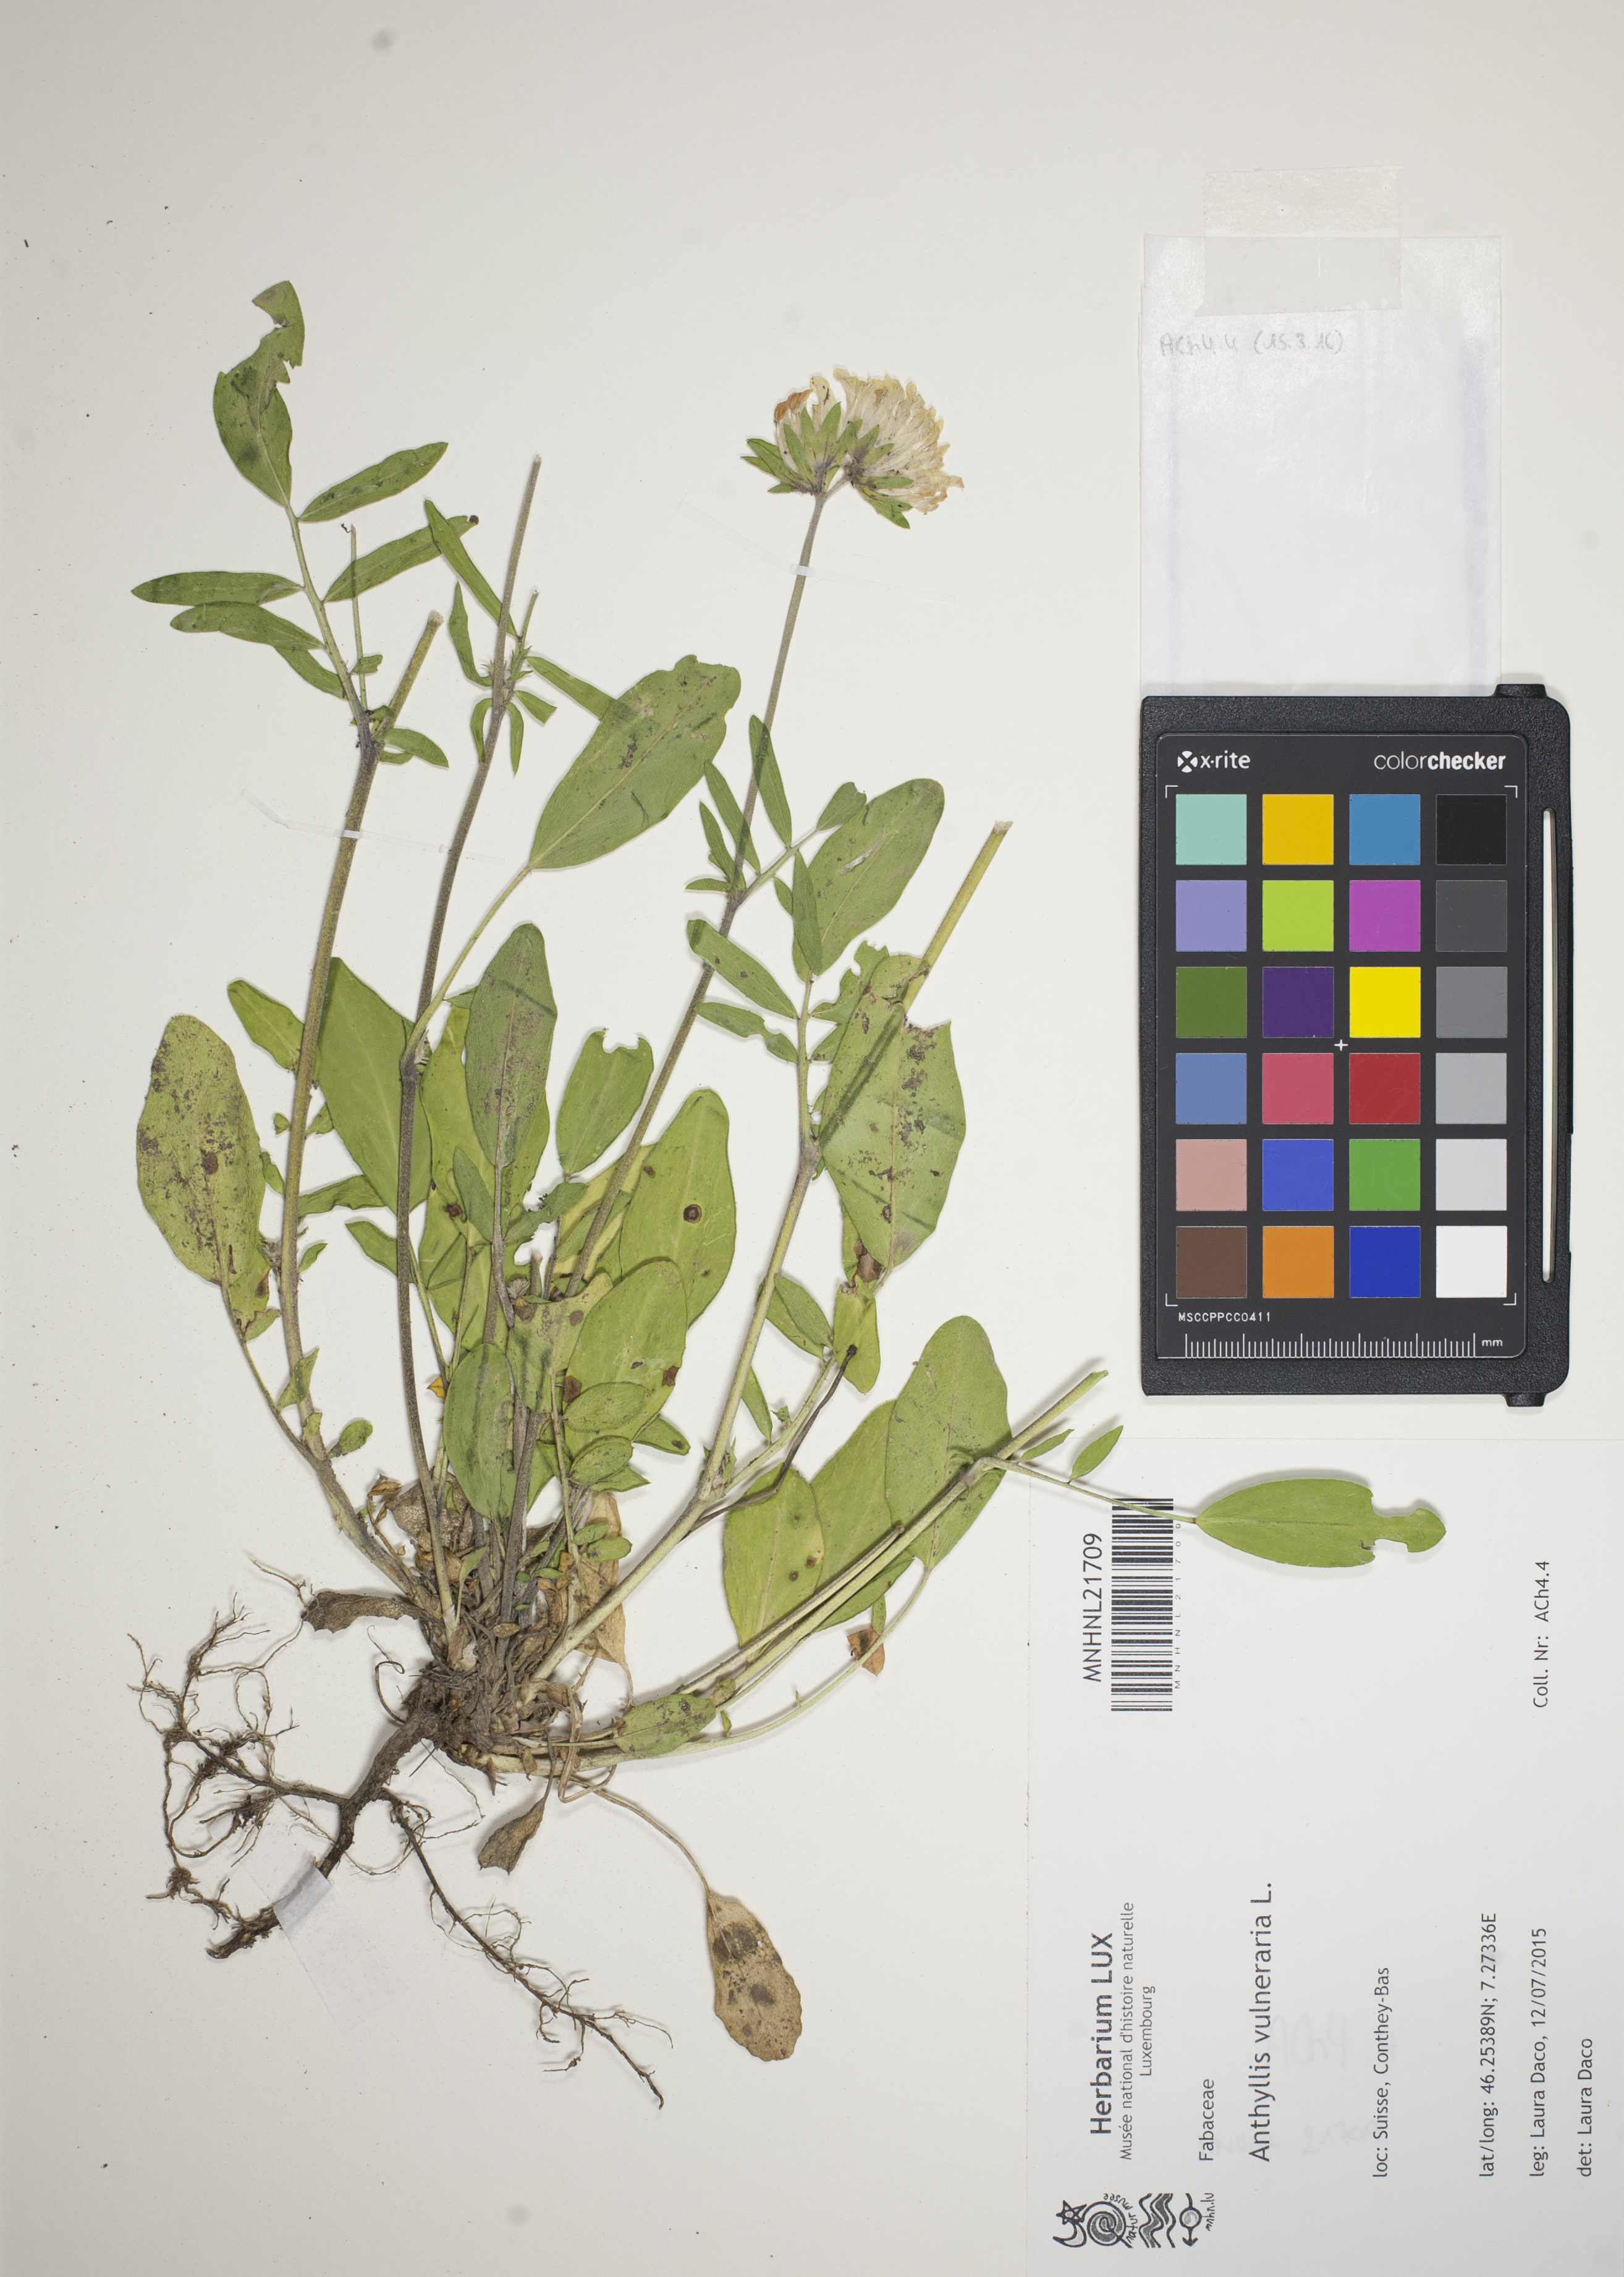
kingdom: Plantae
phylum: Tracheophyta
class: Magnoliopsida
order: Fabales
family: Fabaceae
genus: Anthyllis
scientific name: Anthyllis vulneraria
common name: Kidney vetch
